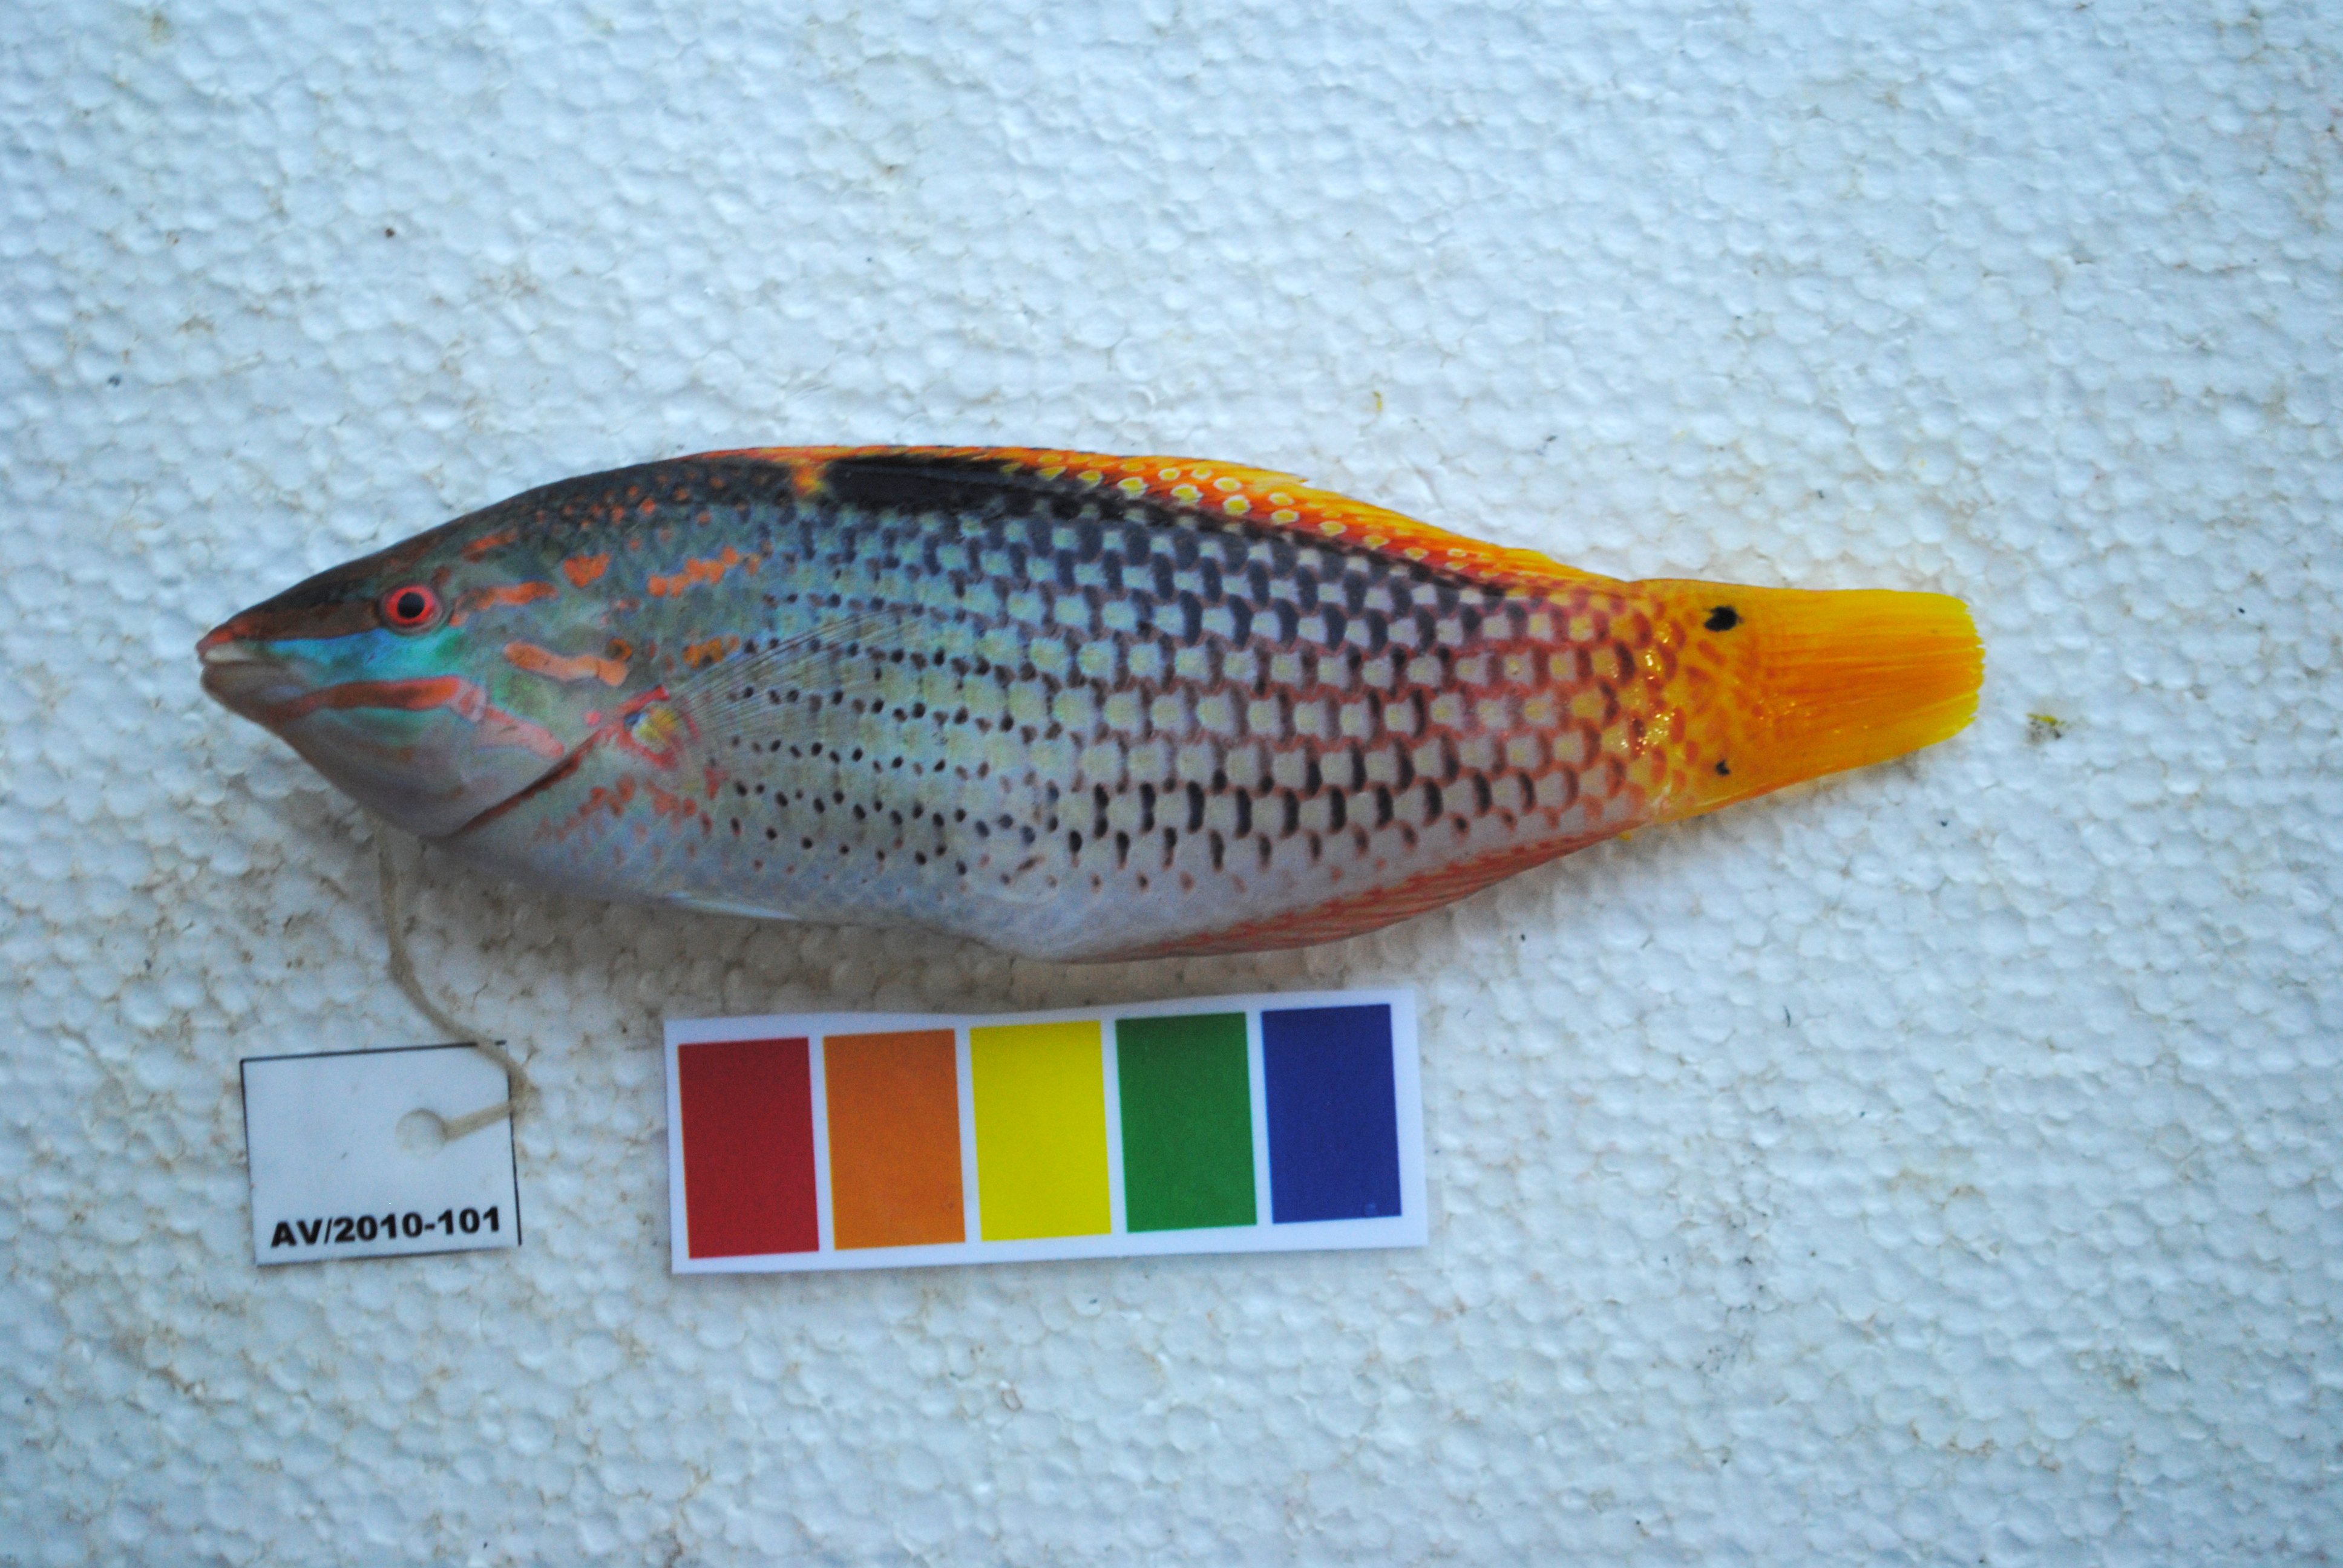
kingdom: Animalia
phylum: Chordata
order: Perciformes
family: Labridae
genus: Halichoeres
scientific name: Halichoeres hortulanus
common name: Checkerboard wrasse
